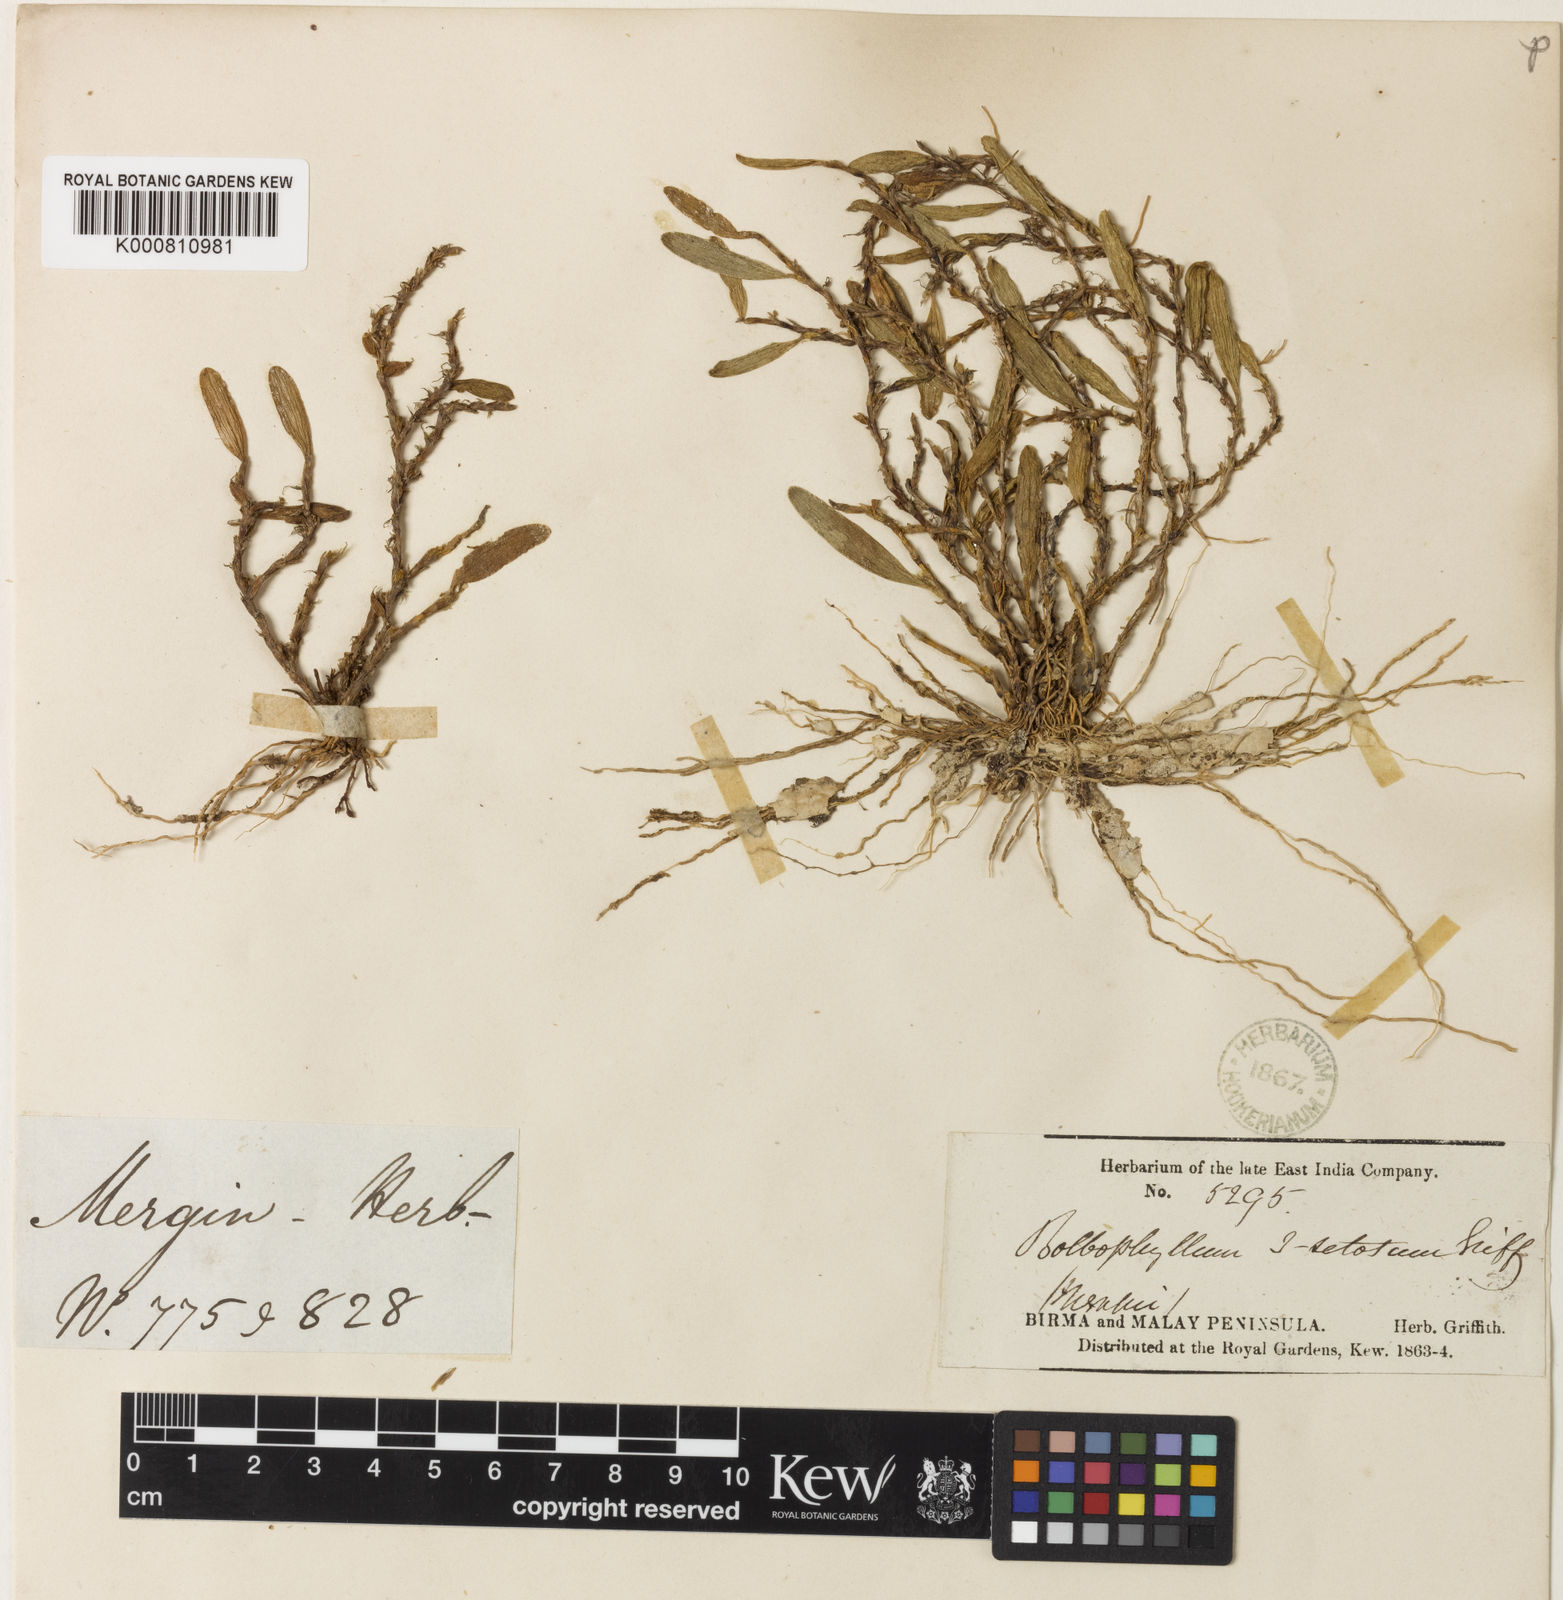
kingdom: Plantae
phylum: Tracheophyta
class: Liliopsida
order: Asparagales
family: Orchidaceae
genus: Bulbophyllum
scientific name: Bulbophyllum clandestinum
